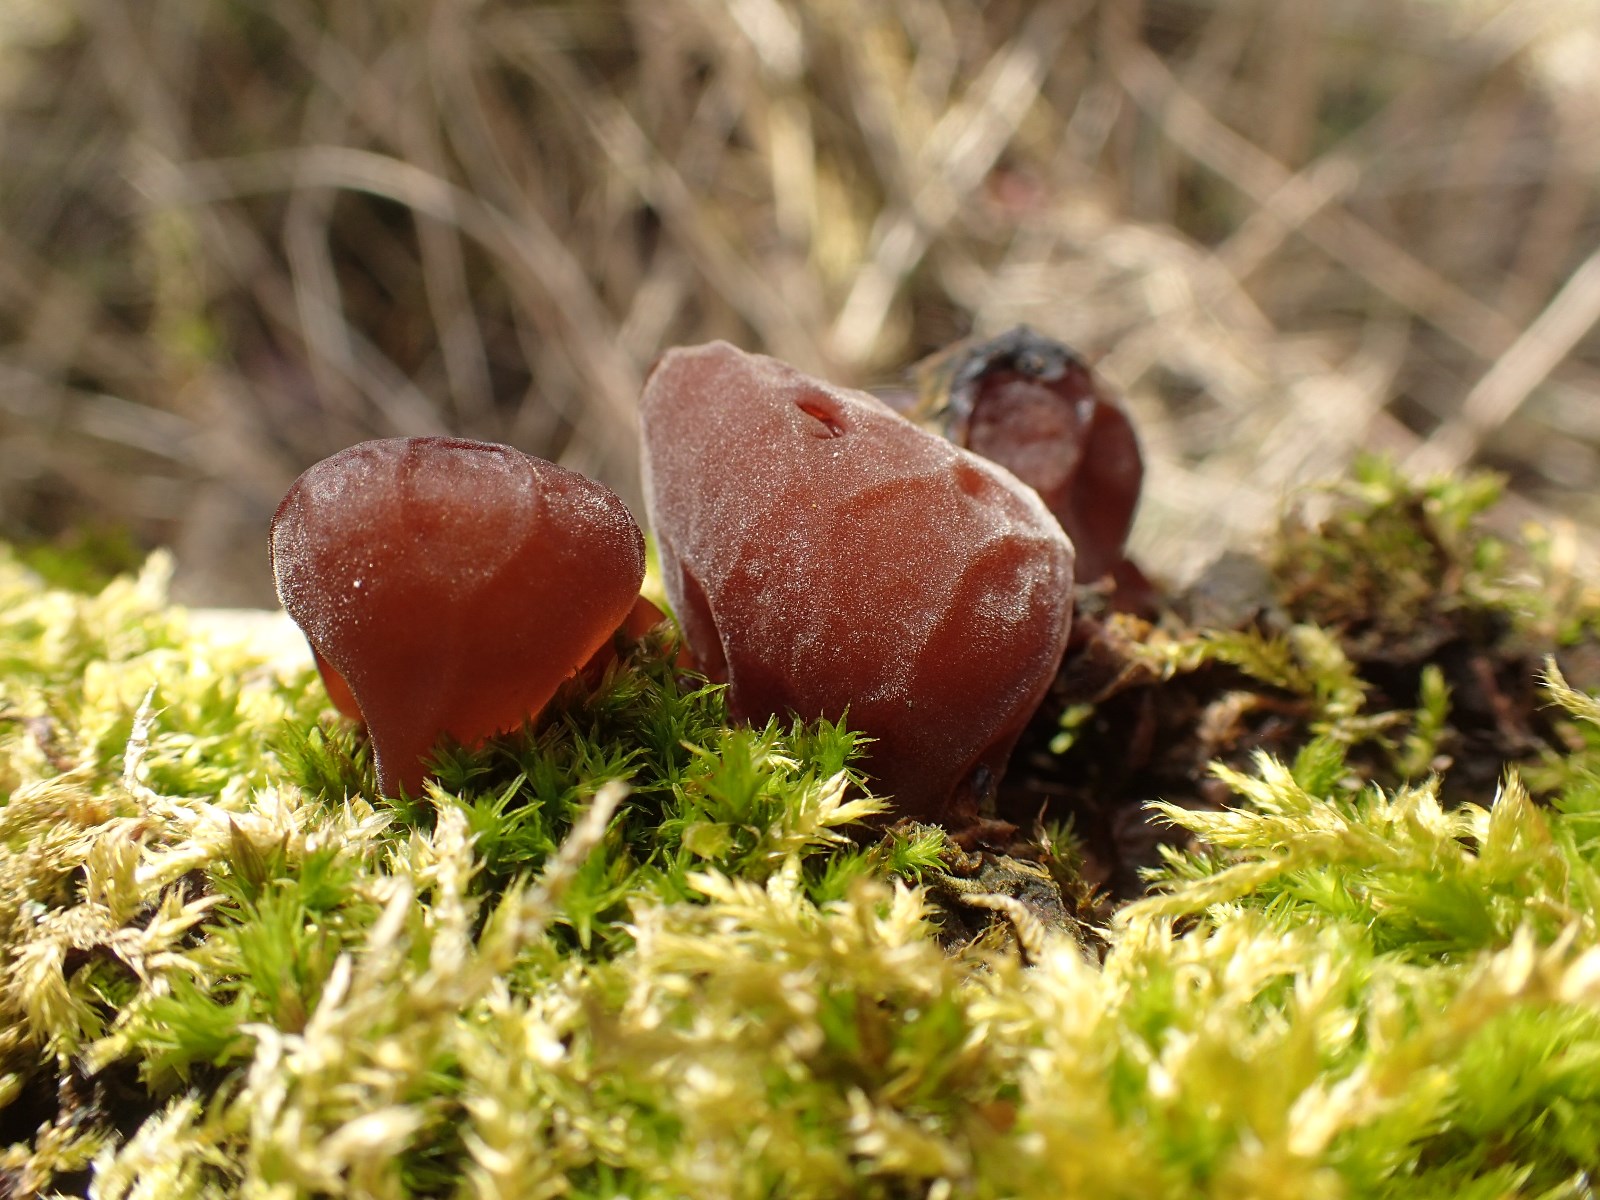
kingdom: Fungi
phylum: Basidiomycota
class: Agaricomycetes
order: Auriculariales
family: Auriculariaceae
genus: Auricularia
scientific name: Auricularia auricula-judae
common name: almindelig judasøre
